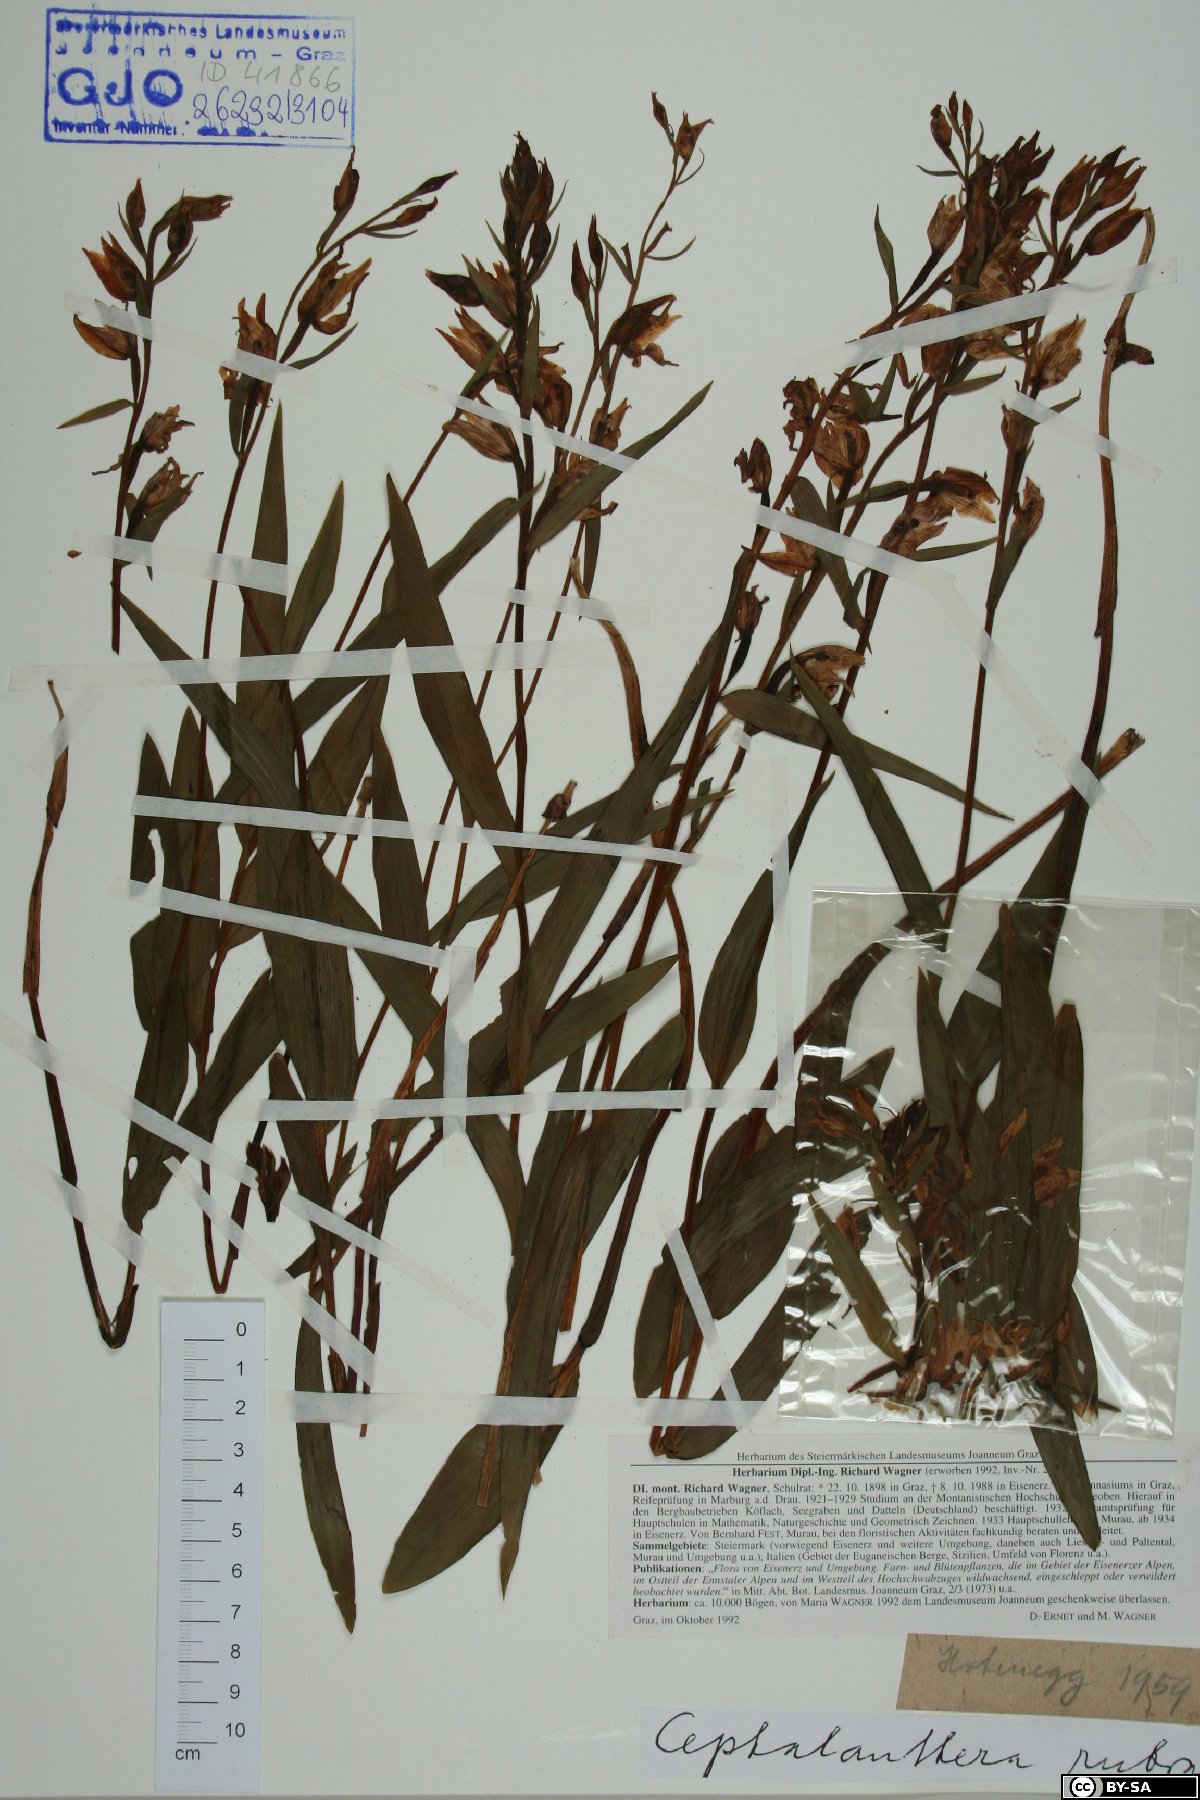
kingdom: Plantae
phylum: Tracheophyta
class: Liliopsida
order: Asparagales
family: Orchidaceae
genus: Cephalanthera
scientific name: Cephalanthera rubra
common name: Red helleborine
